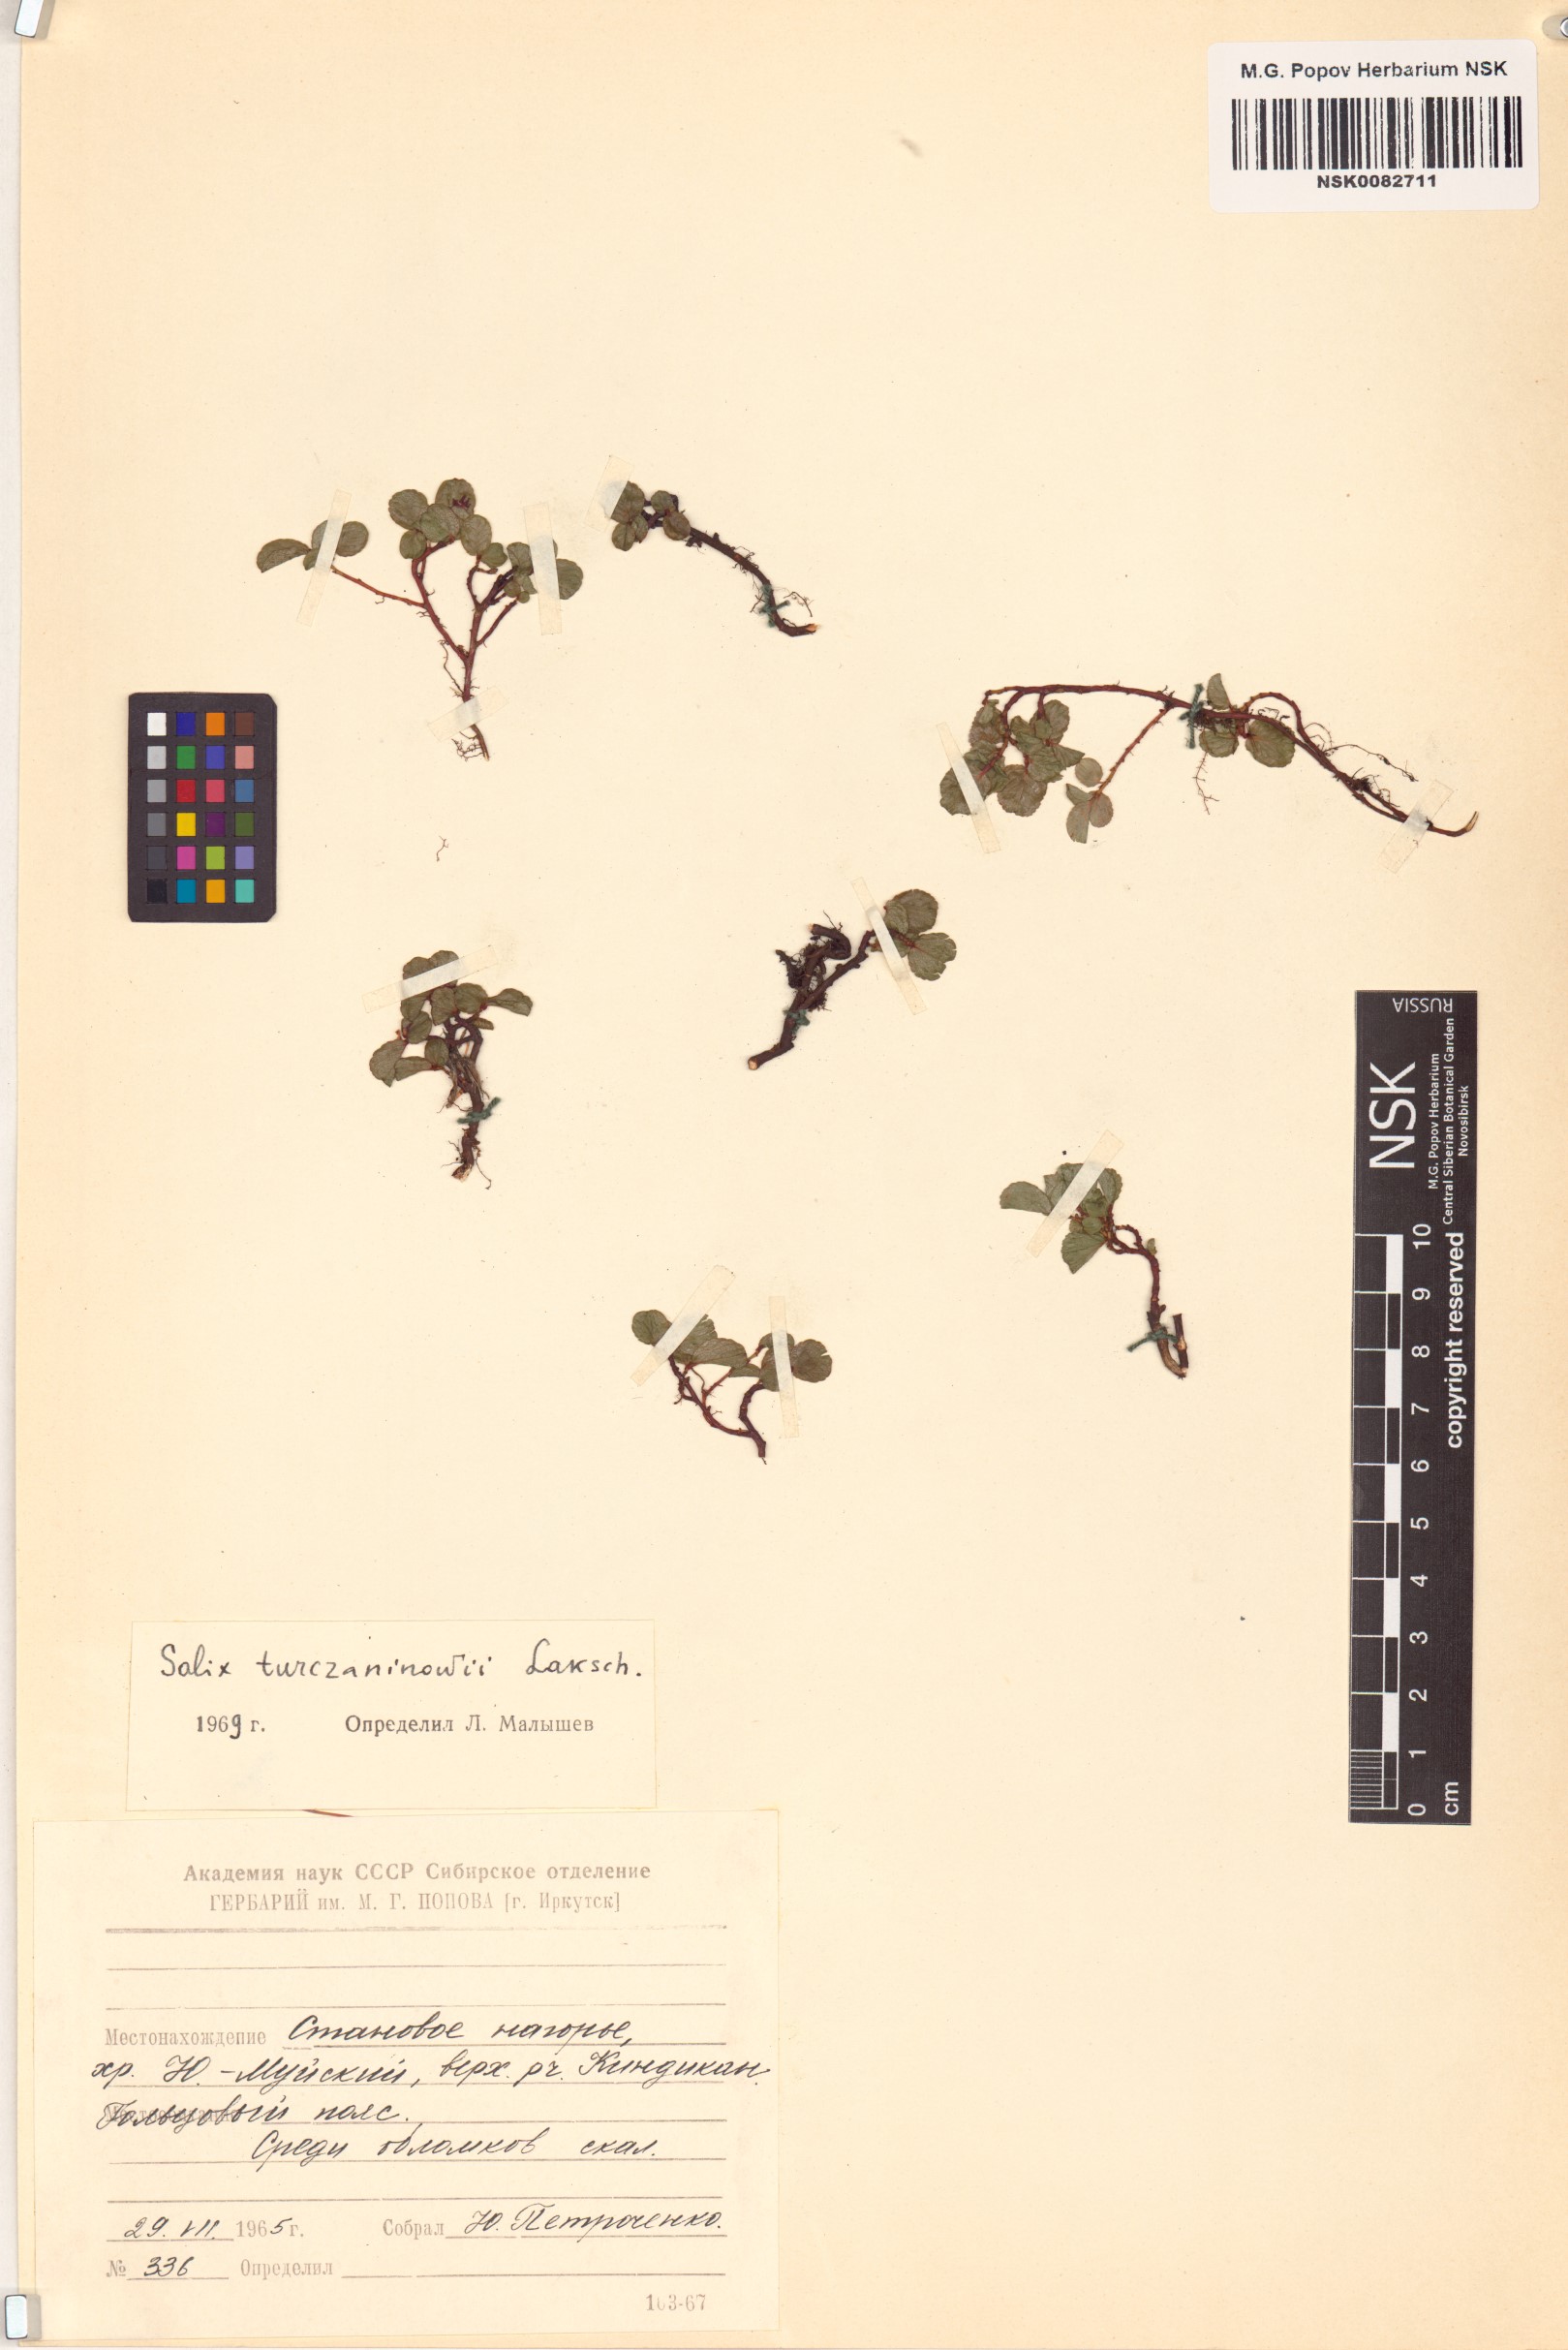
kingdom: Plantae
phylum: Tracheophyta
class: Magnoliopsida
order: Malpighiales
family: Salicaceae
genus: Salix
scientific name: Salix turczaninowii
